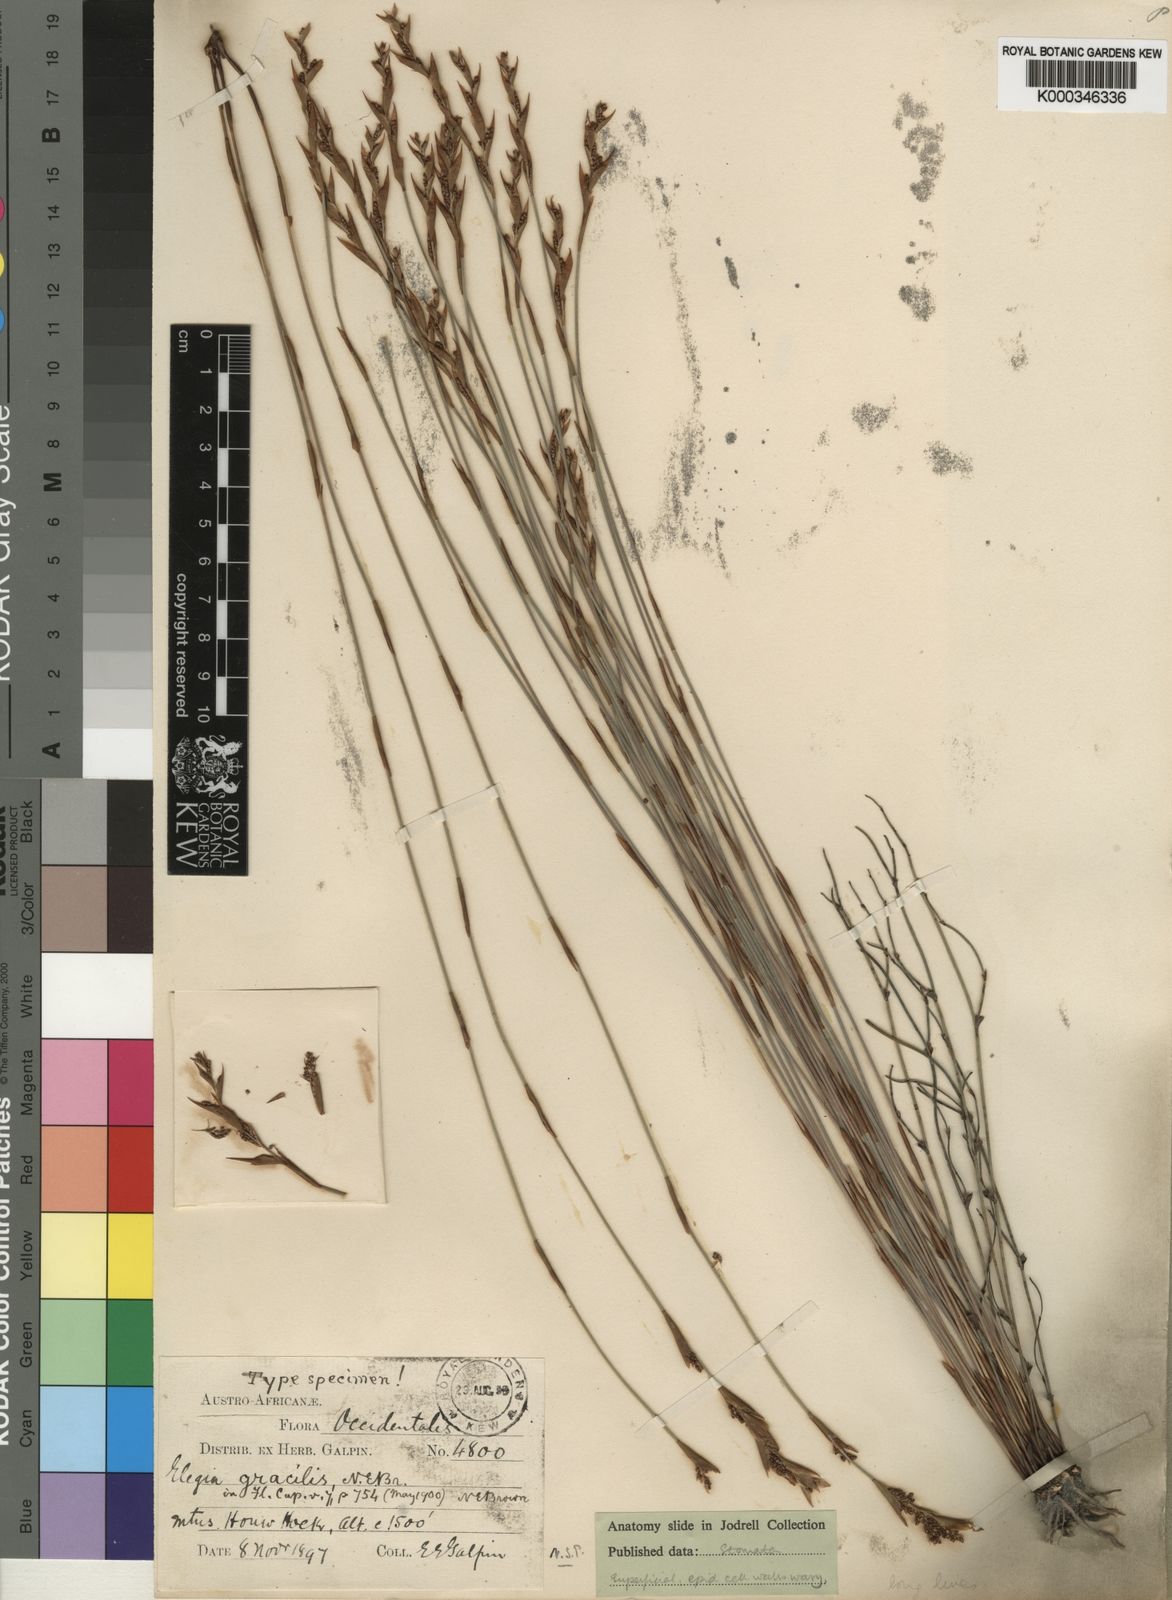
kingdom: Plantae
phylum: Tracheophyta
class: Liliopsida
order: Poales
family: Restionaceae
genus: Elegia
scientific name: Elegia filacea
